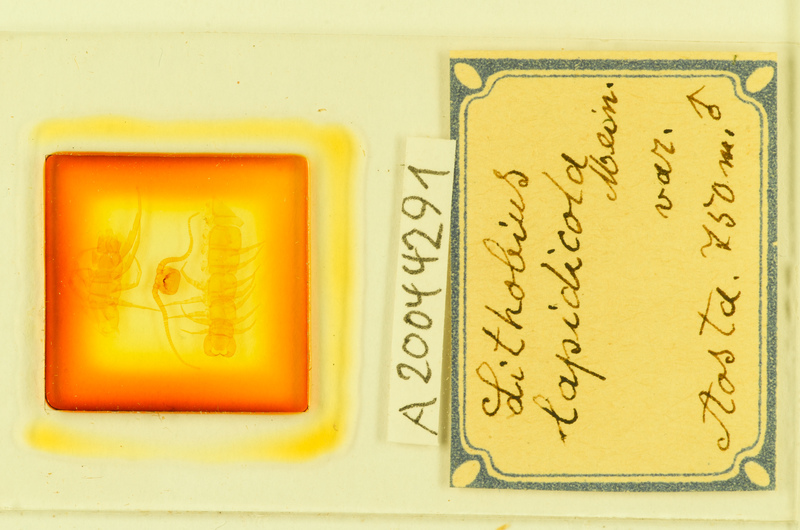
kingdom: Animalia
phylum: Arthropoda
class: Chilopoda
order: Lithobiomorpha
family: Lithobiidae
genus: Lithobius
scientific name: Lithobius lapidicola
